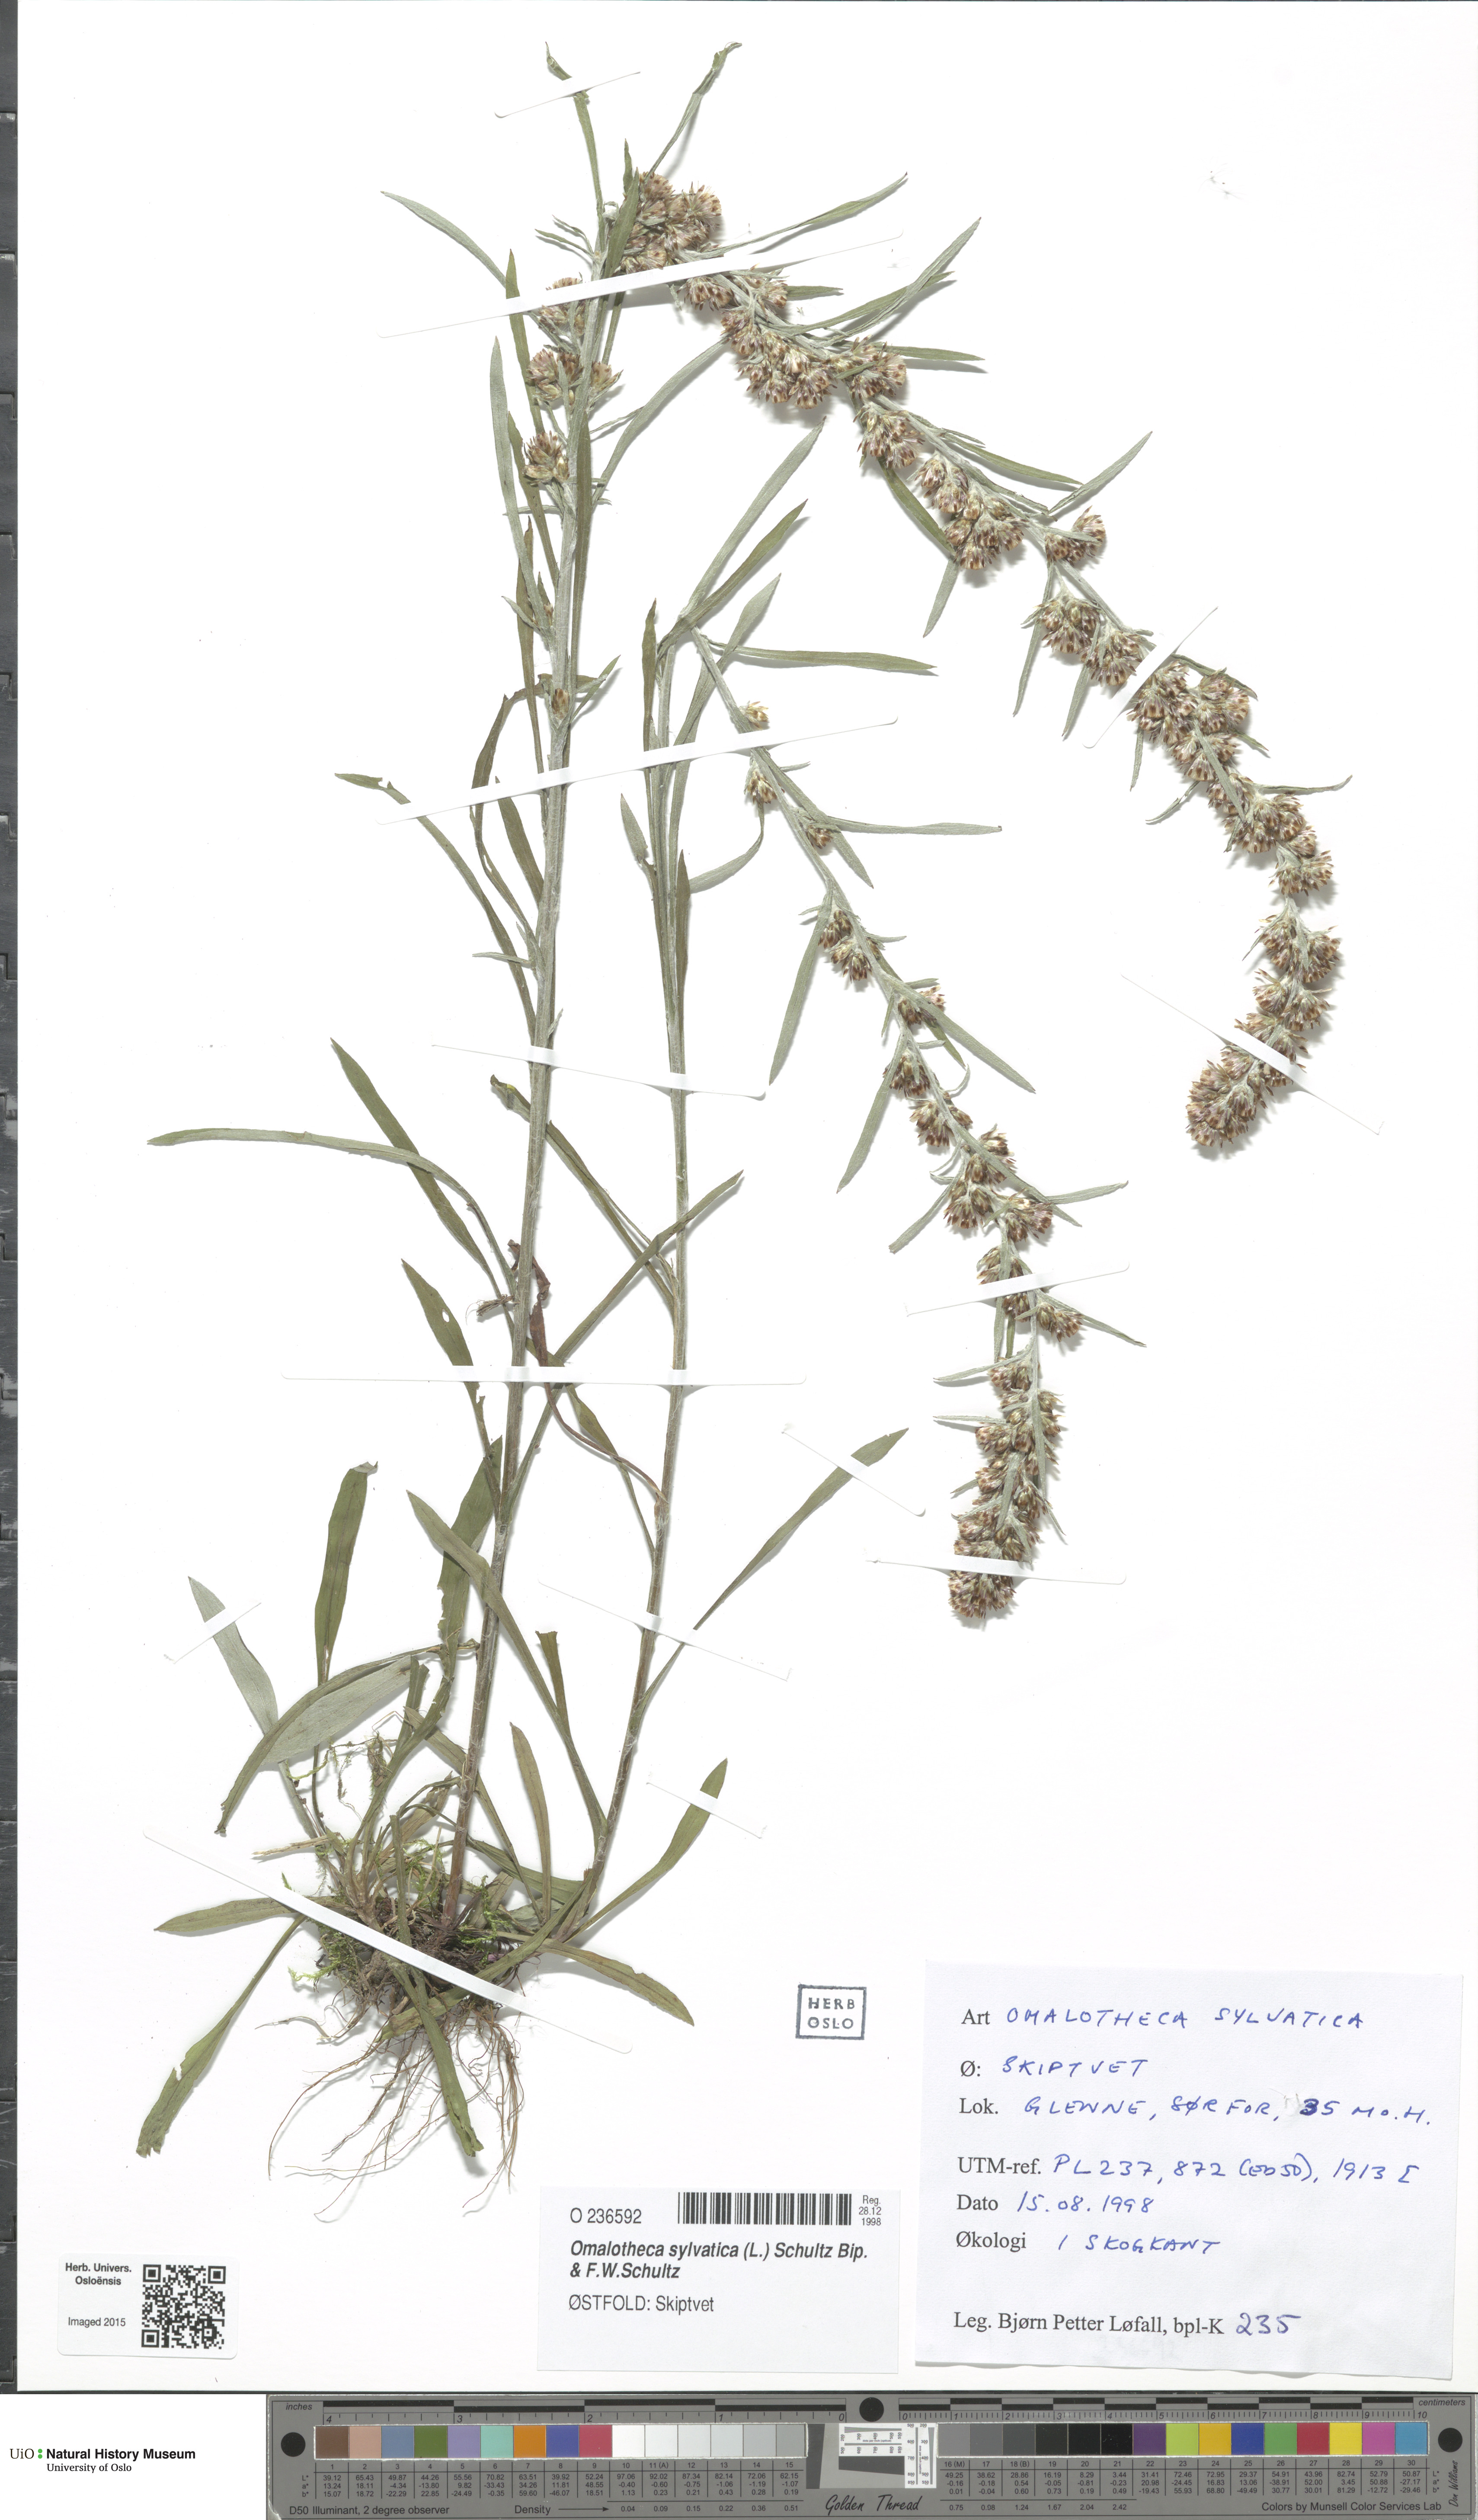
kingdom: Plantae
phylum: Tracheophyta
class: Magnoliopsida
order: Asterales
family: Asteraceae
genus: Omalotheca
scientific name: Omalotheca sylvatica
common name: Heath cudweed
